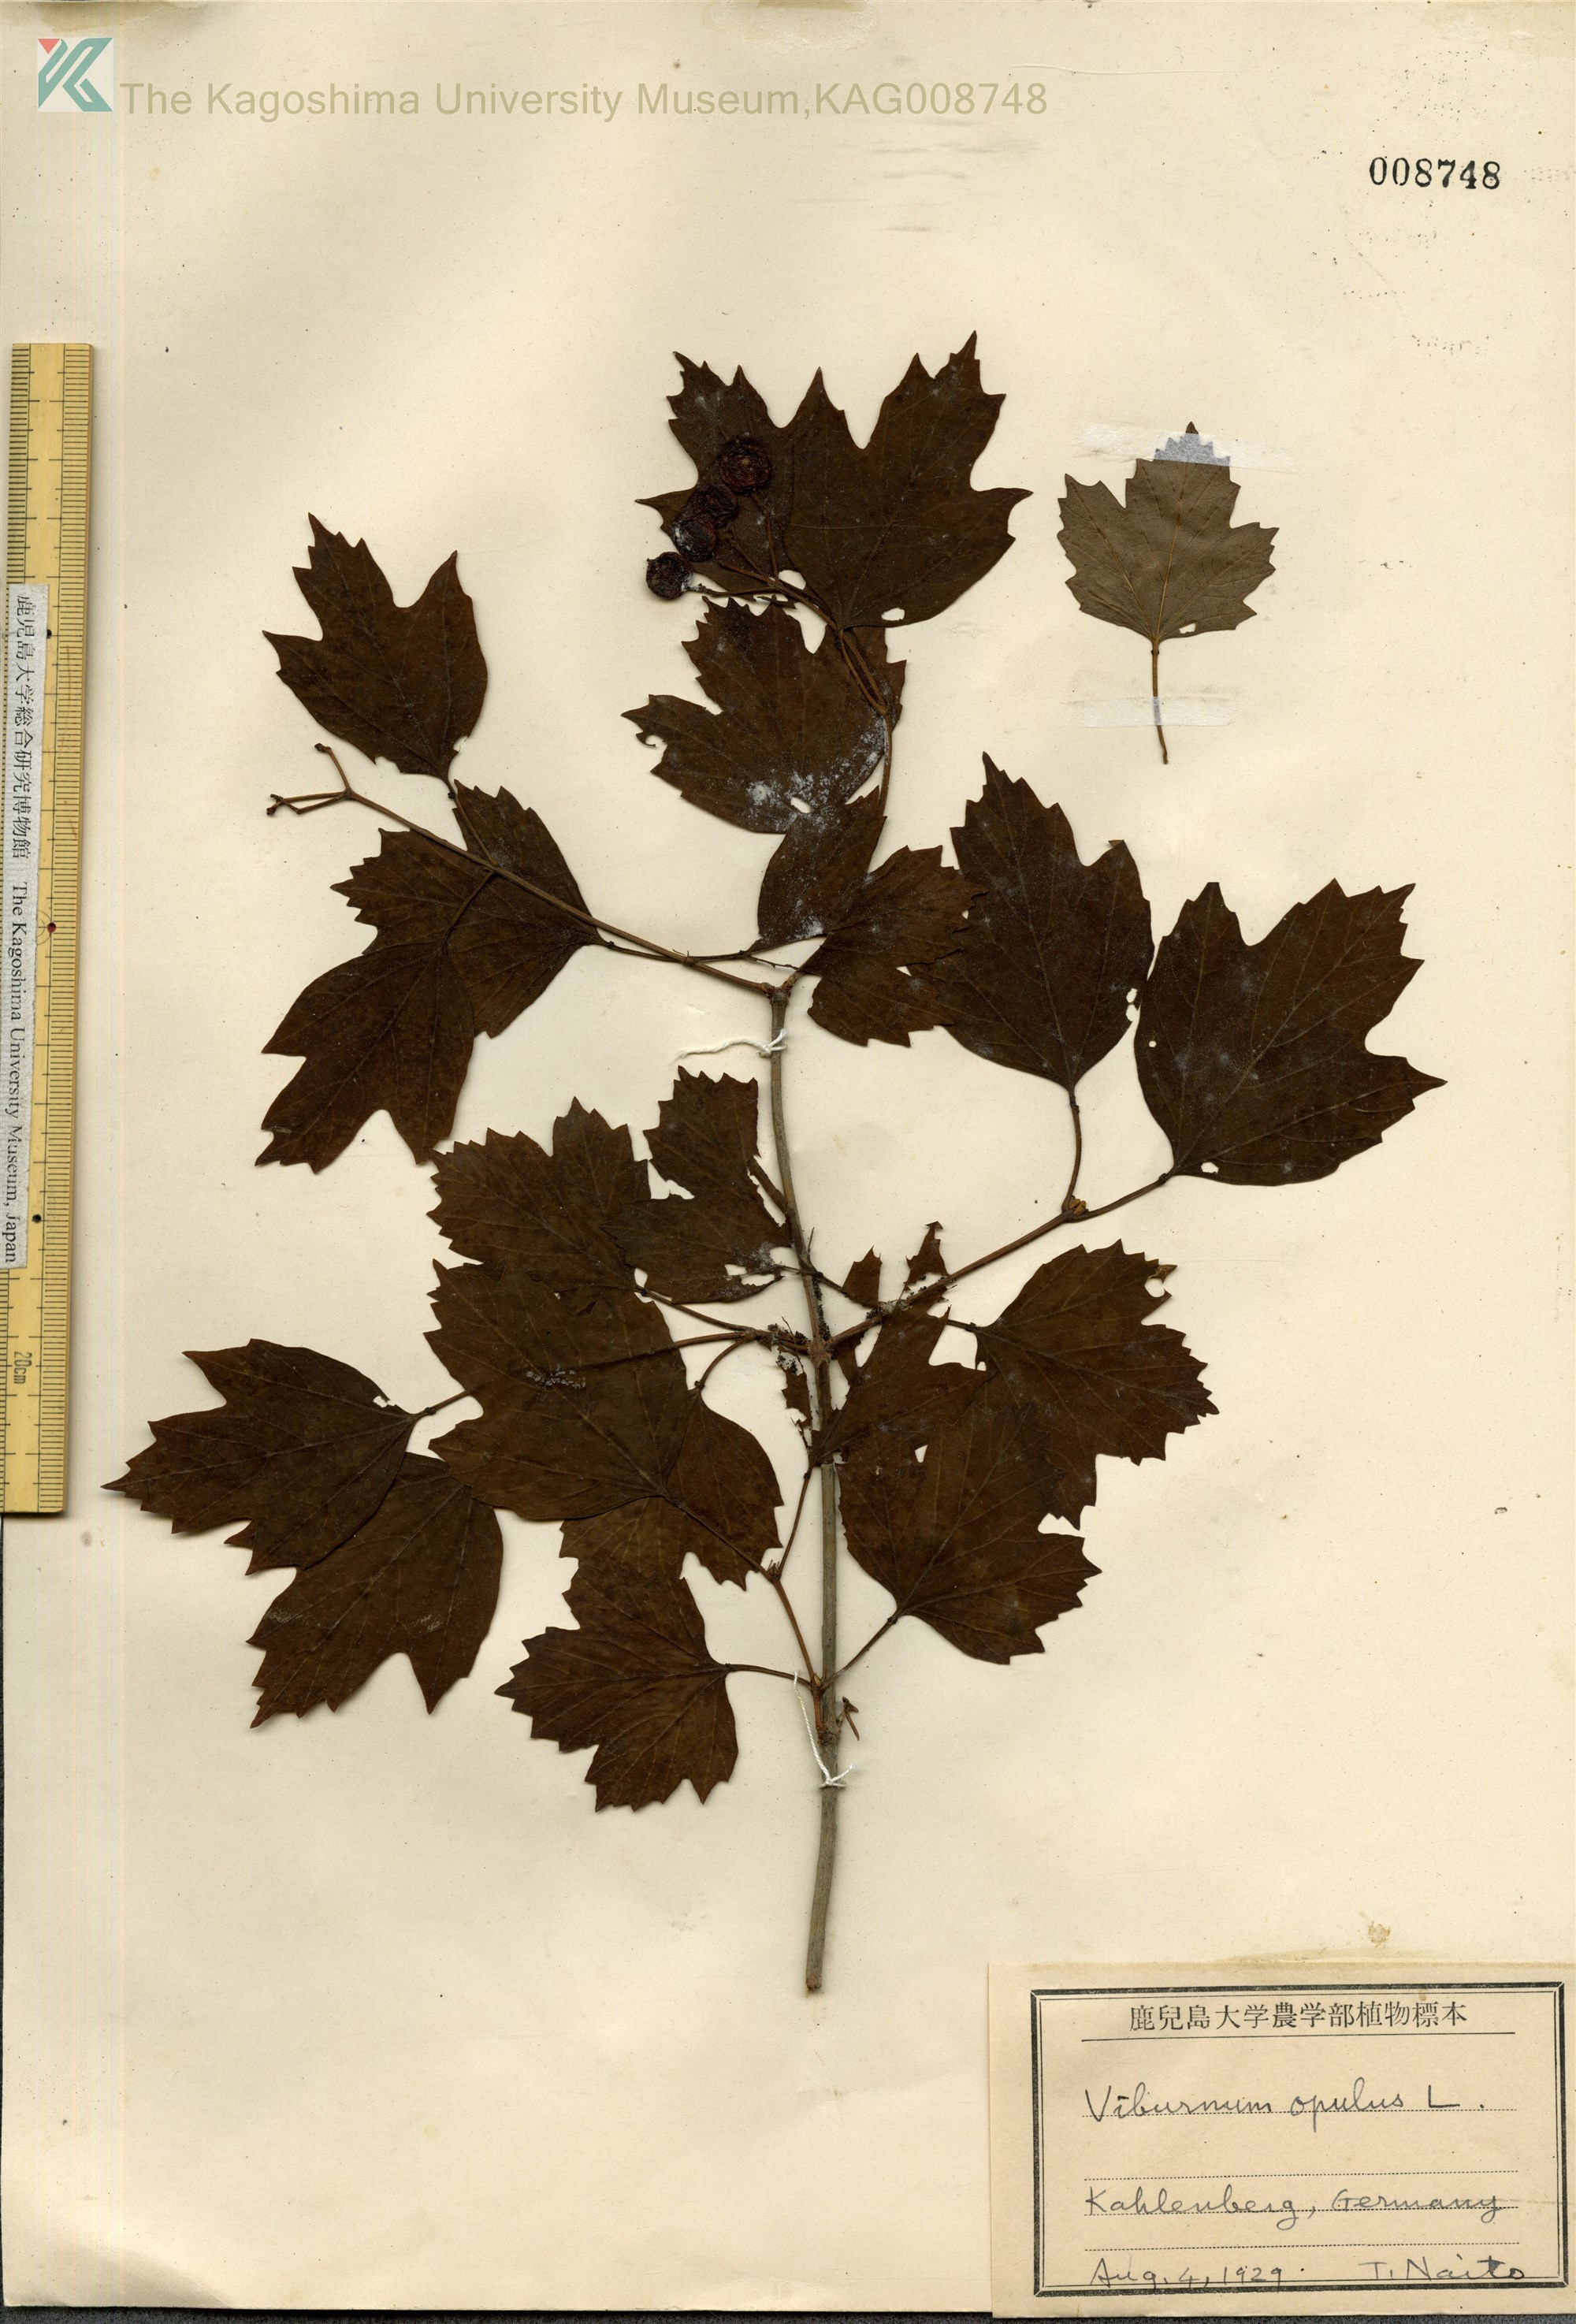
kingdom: Plantae
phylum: Tracheophyta
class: Magnoliopsida
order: Dipsacales
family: Viburnaceae
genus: Viburnum
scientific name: Viburnum opulus
